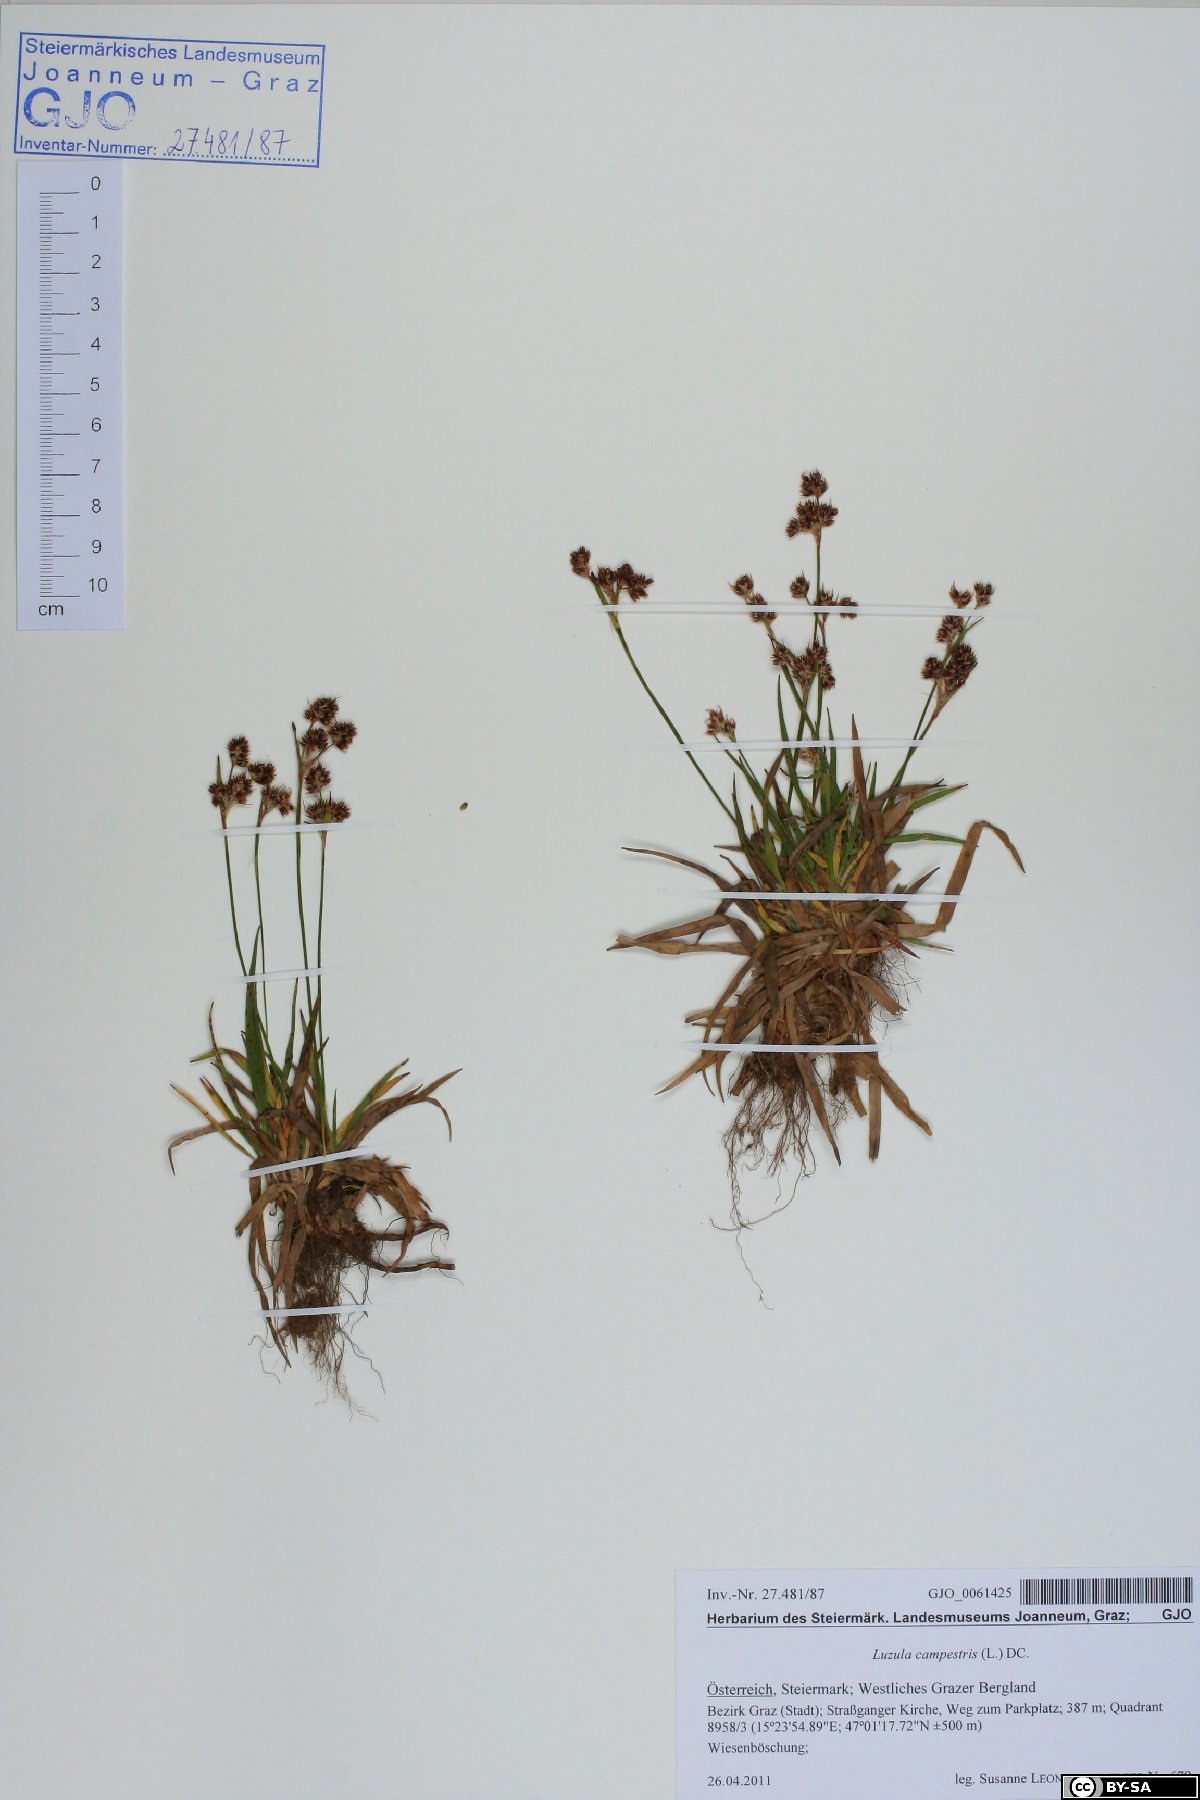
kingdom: Plantae
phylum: Tracheophyta
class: Liliopsida
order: Poales
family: Juncaceae
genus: Luzula
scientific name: Luzula campestris
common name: Field wood-rush
